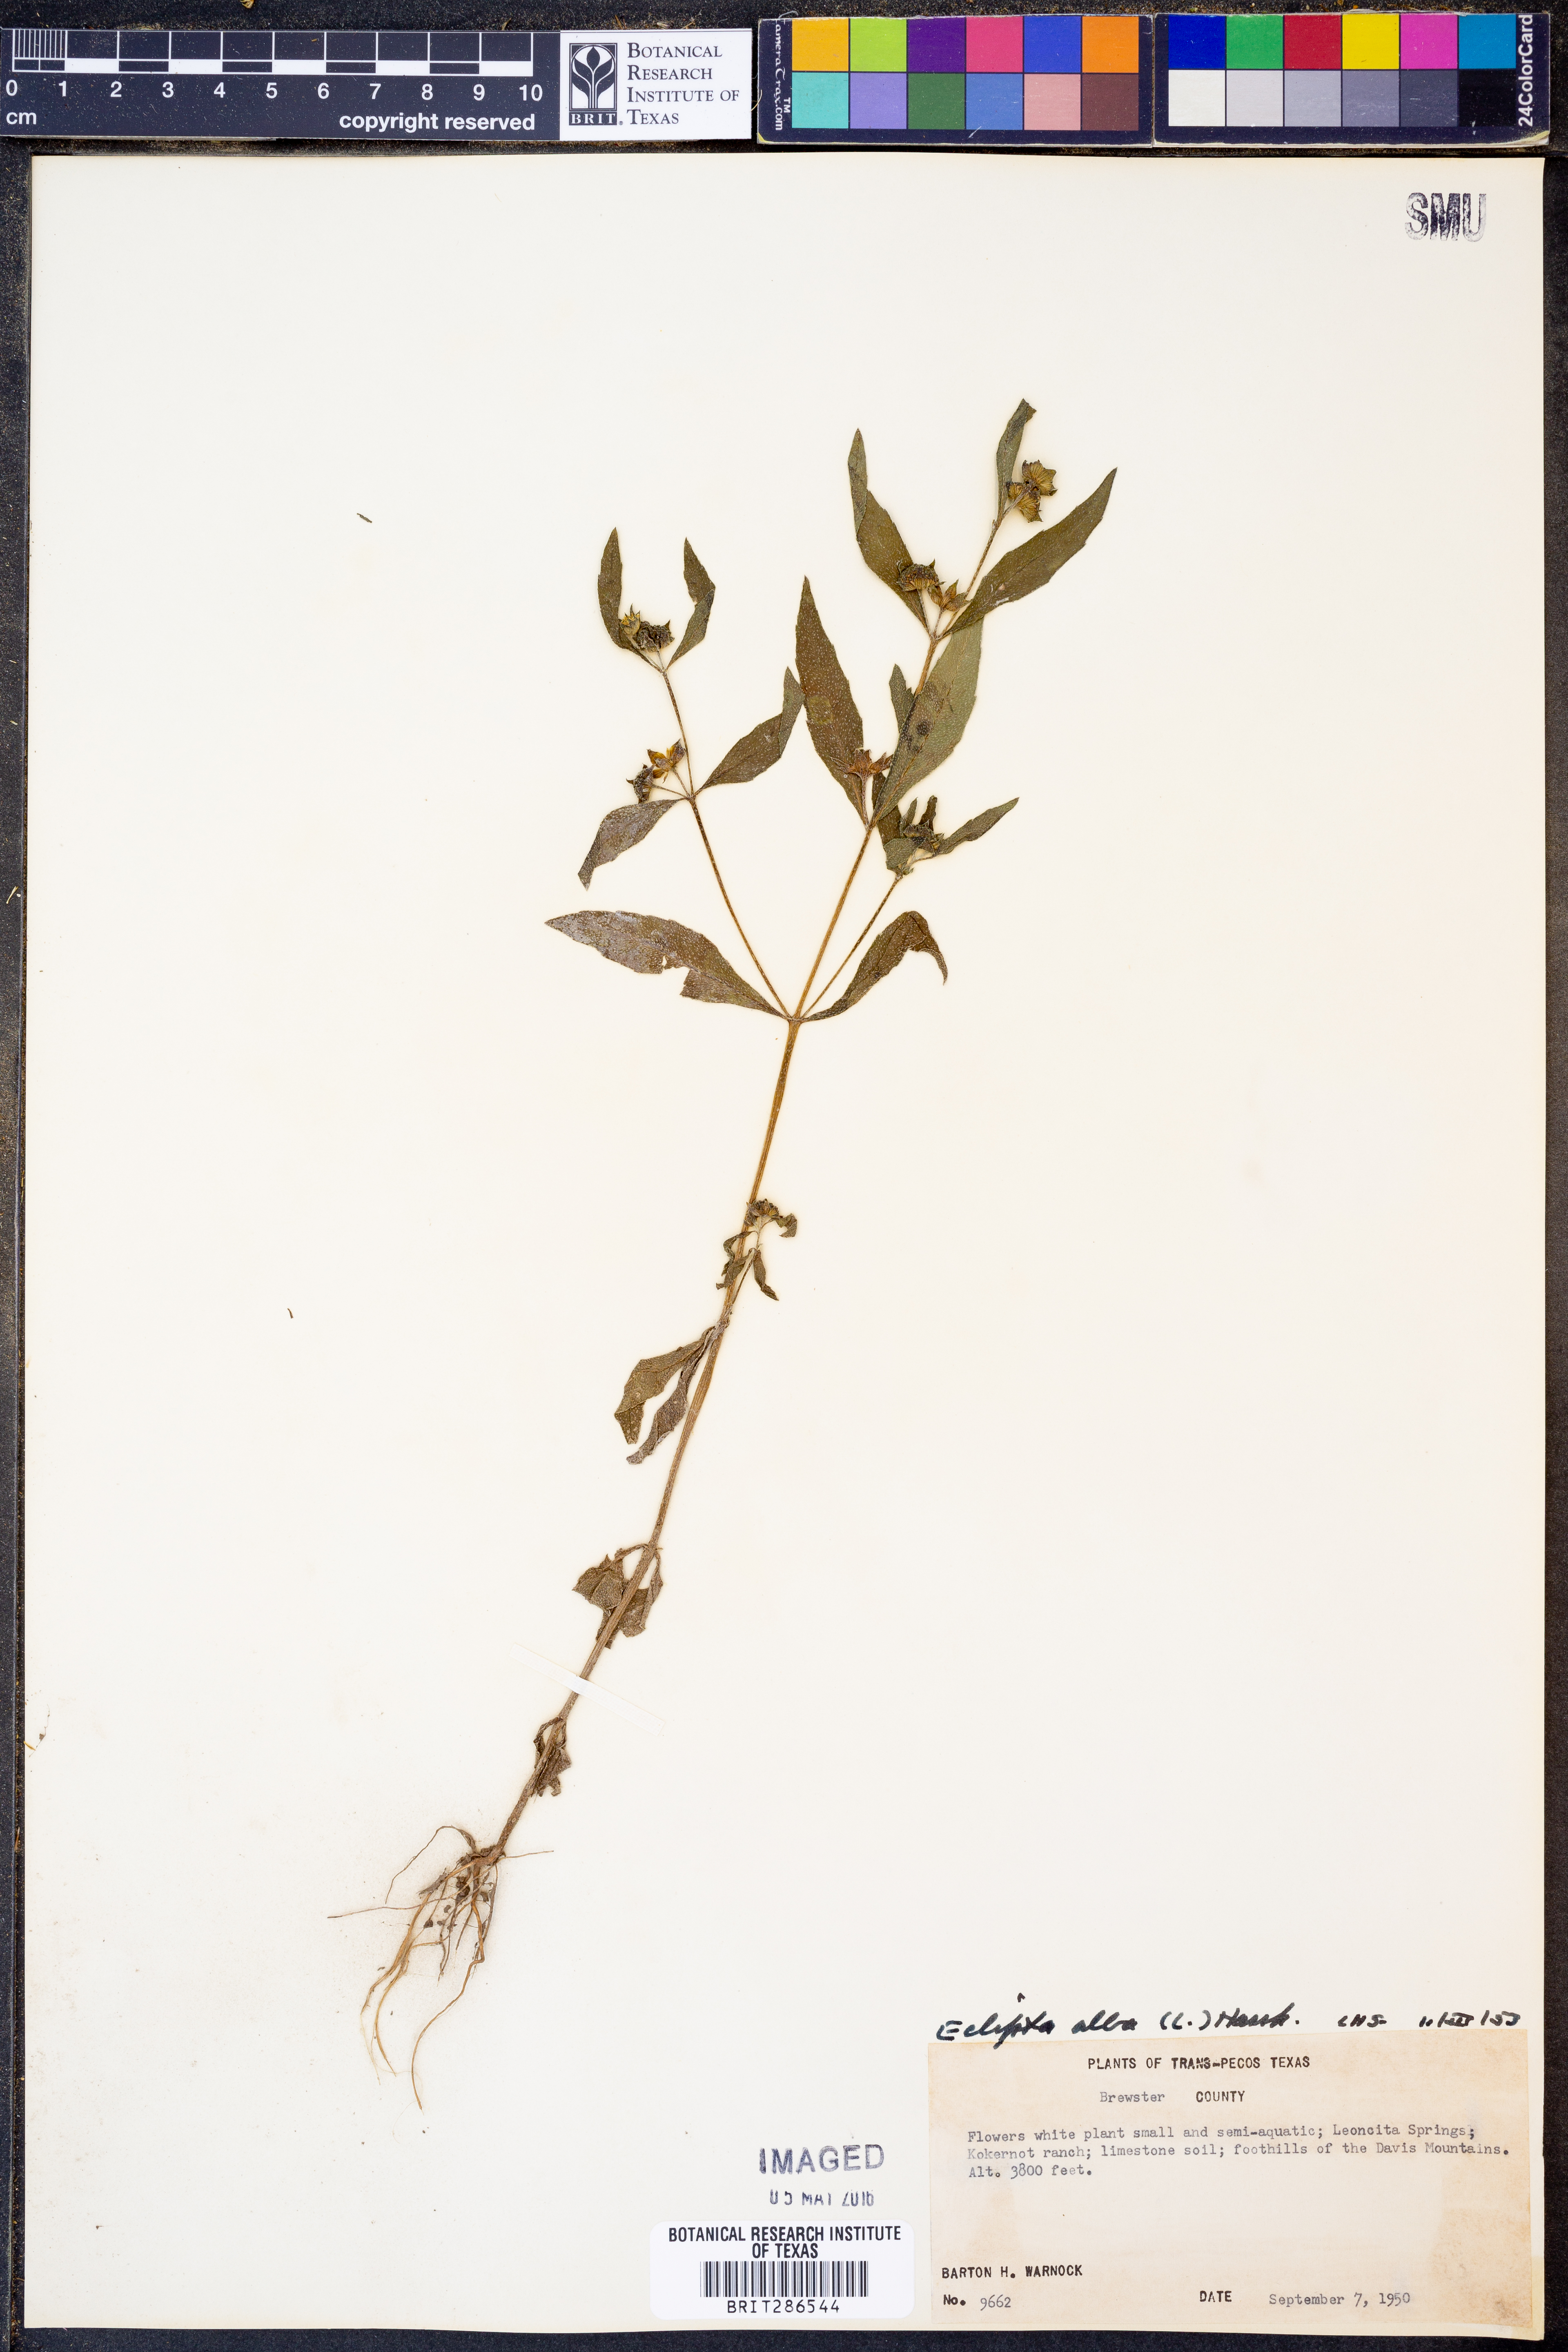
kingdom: Plantae
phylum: Tracheophyta
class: Magnoliopsida
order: Asterales
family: Asteraceae
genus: Eclipta
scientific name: Eclipta alba
